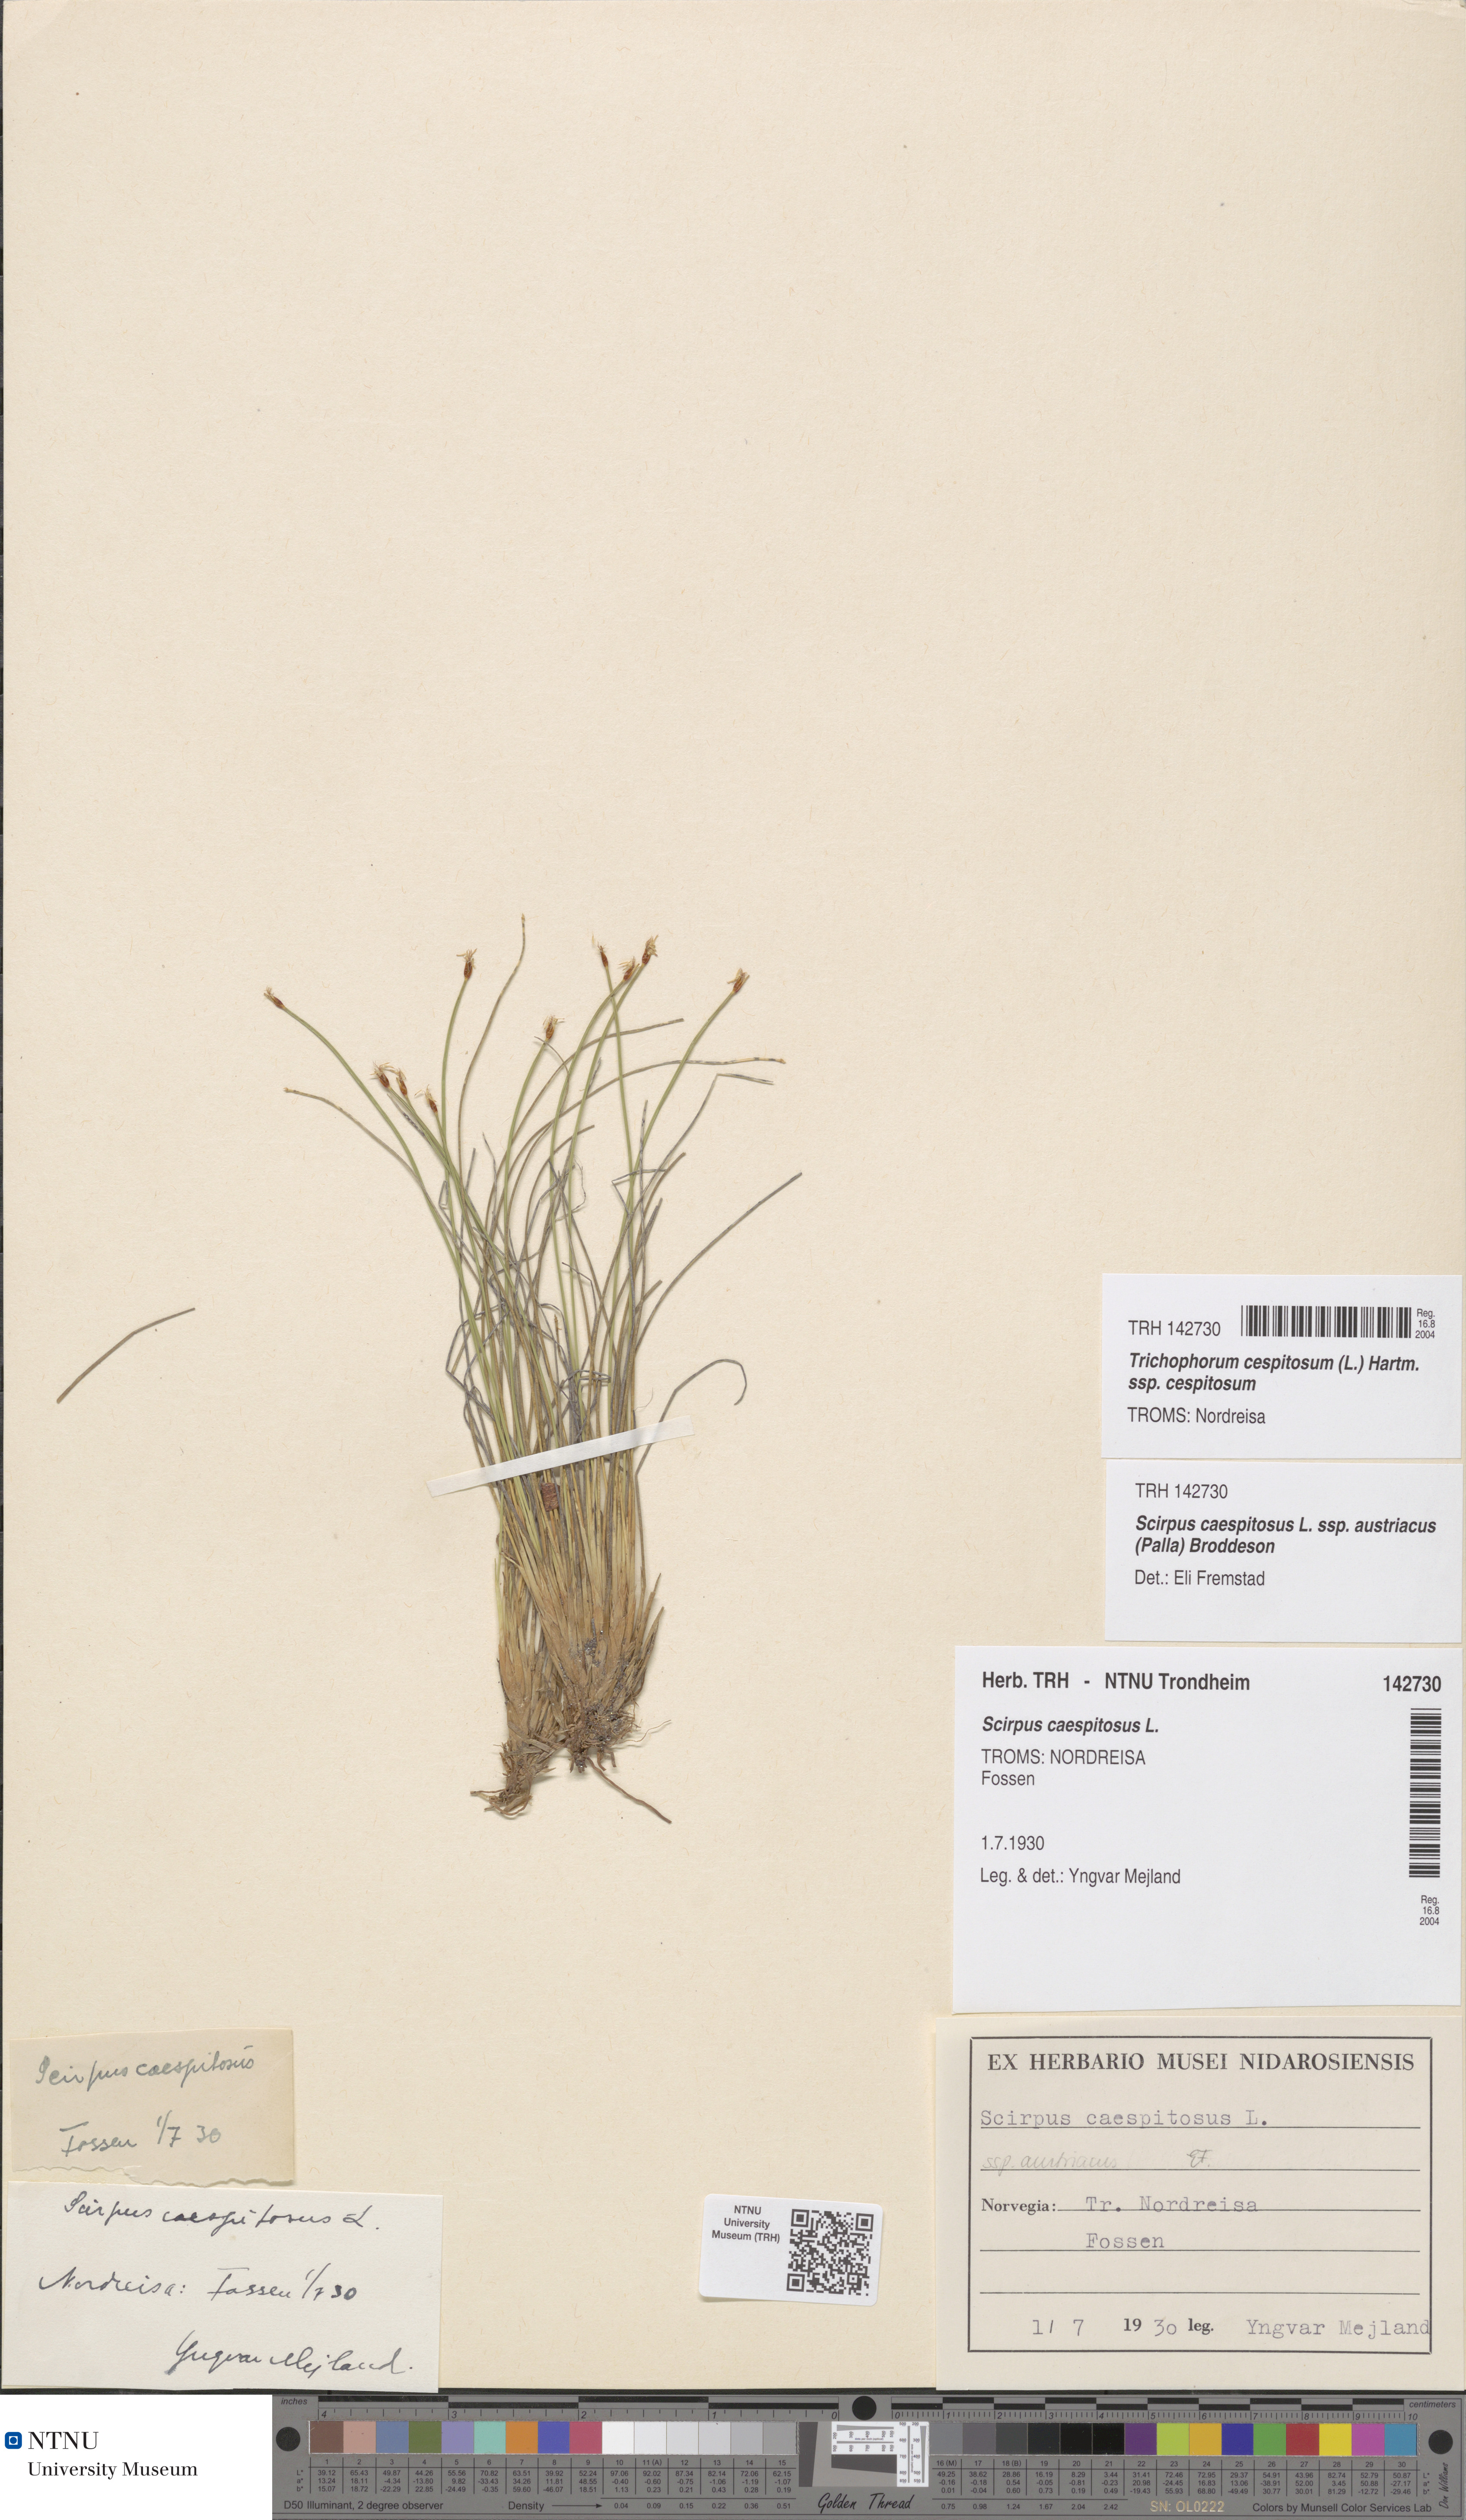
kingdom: Plantae
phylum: Tracheophyta
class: Liliopsida
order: Poales
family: Cyperaceae
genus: Trichophorum
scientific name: Trichophorum cespitosum
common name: Cespitose bulrush
